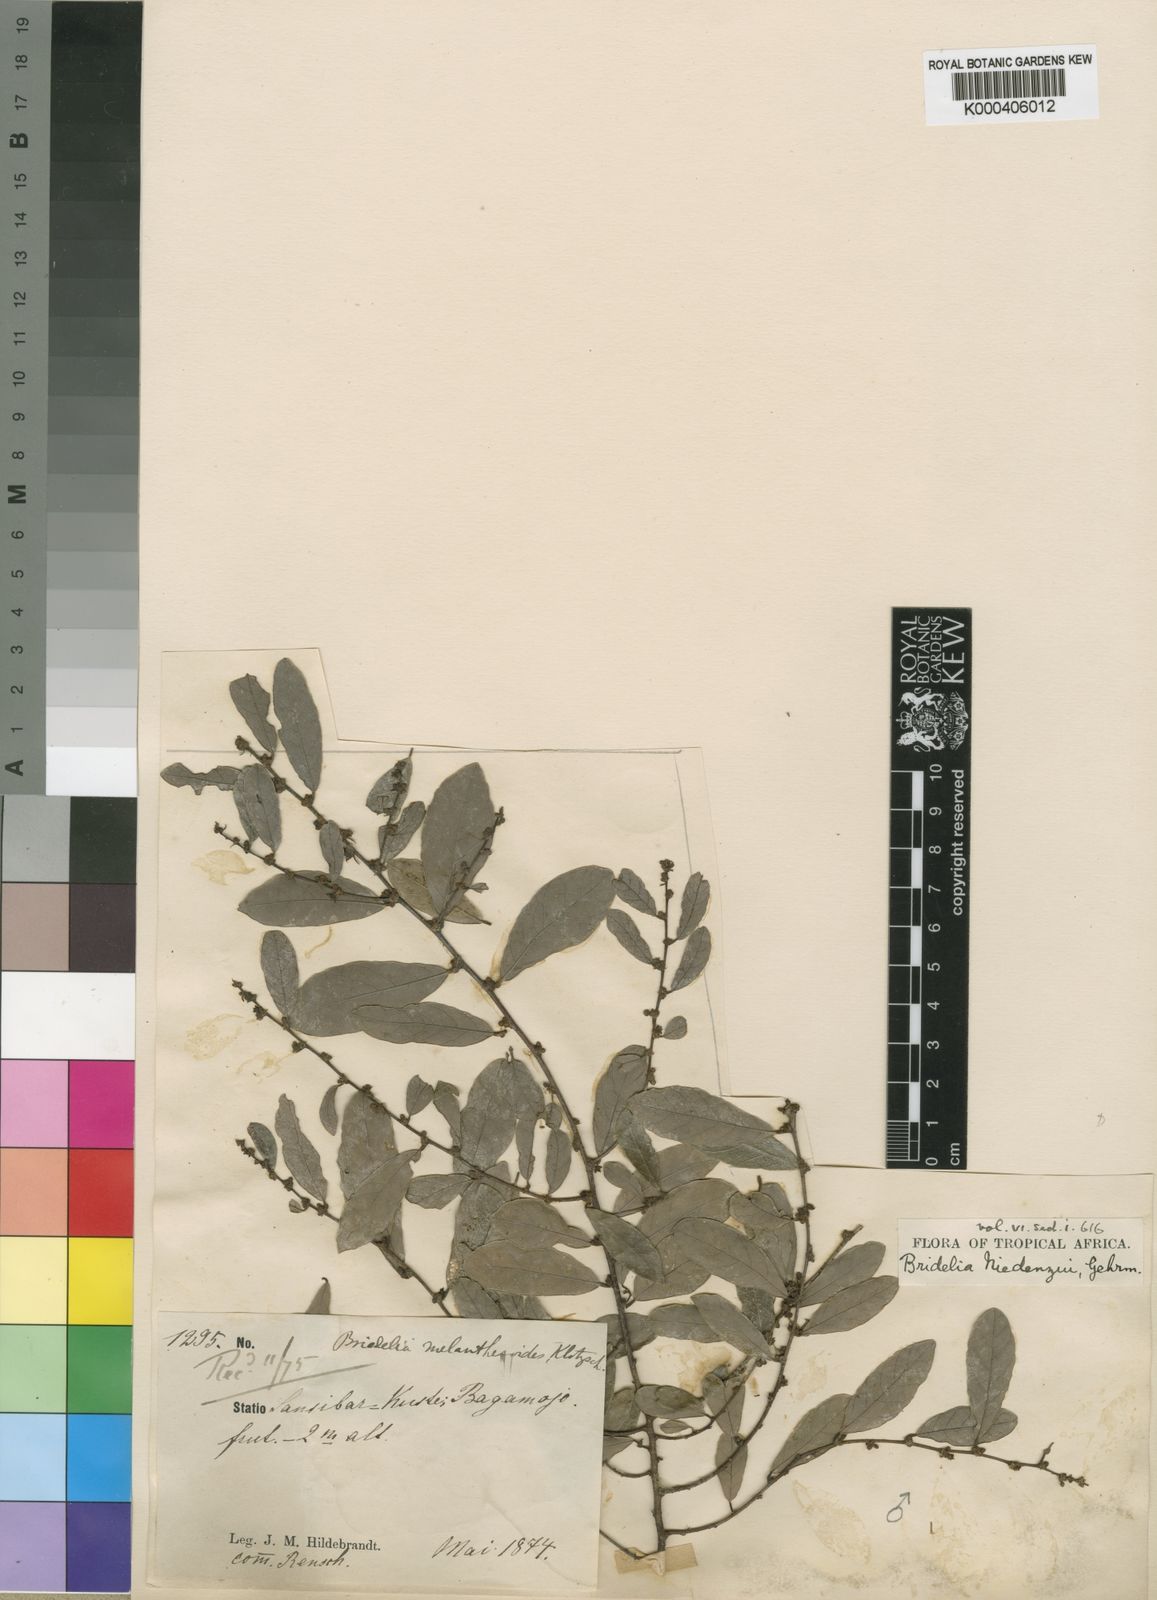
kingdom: Plantae
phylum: Tracheophyta
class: Magnoliopsida
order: Malpighiales
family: Phyllanthaceae
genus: Bridelia
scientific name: Bridelia cathartica
